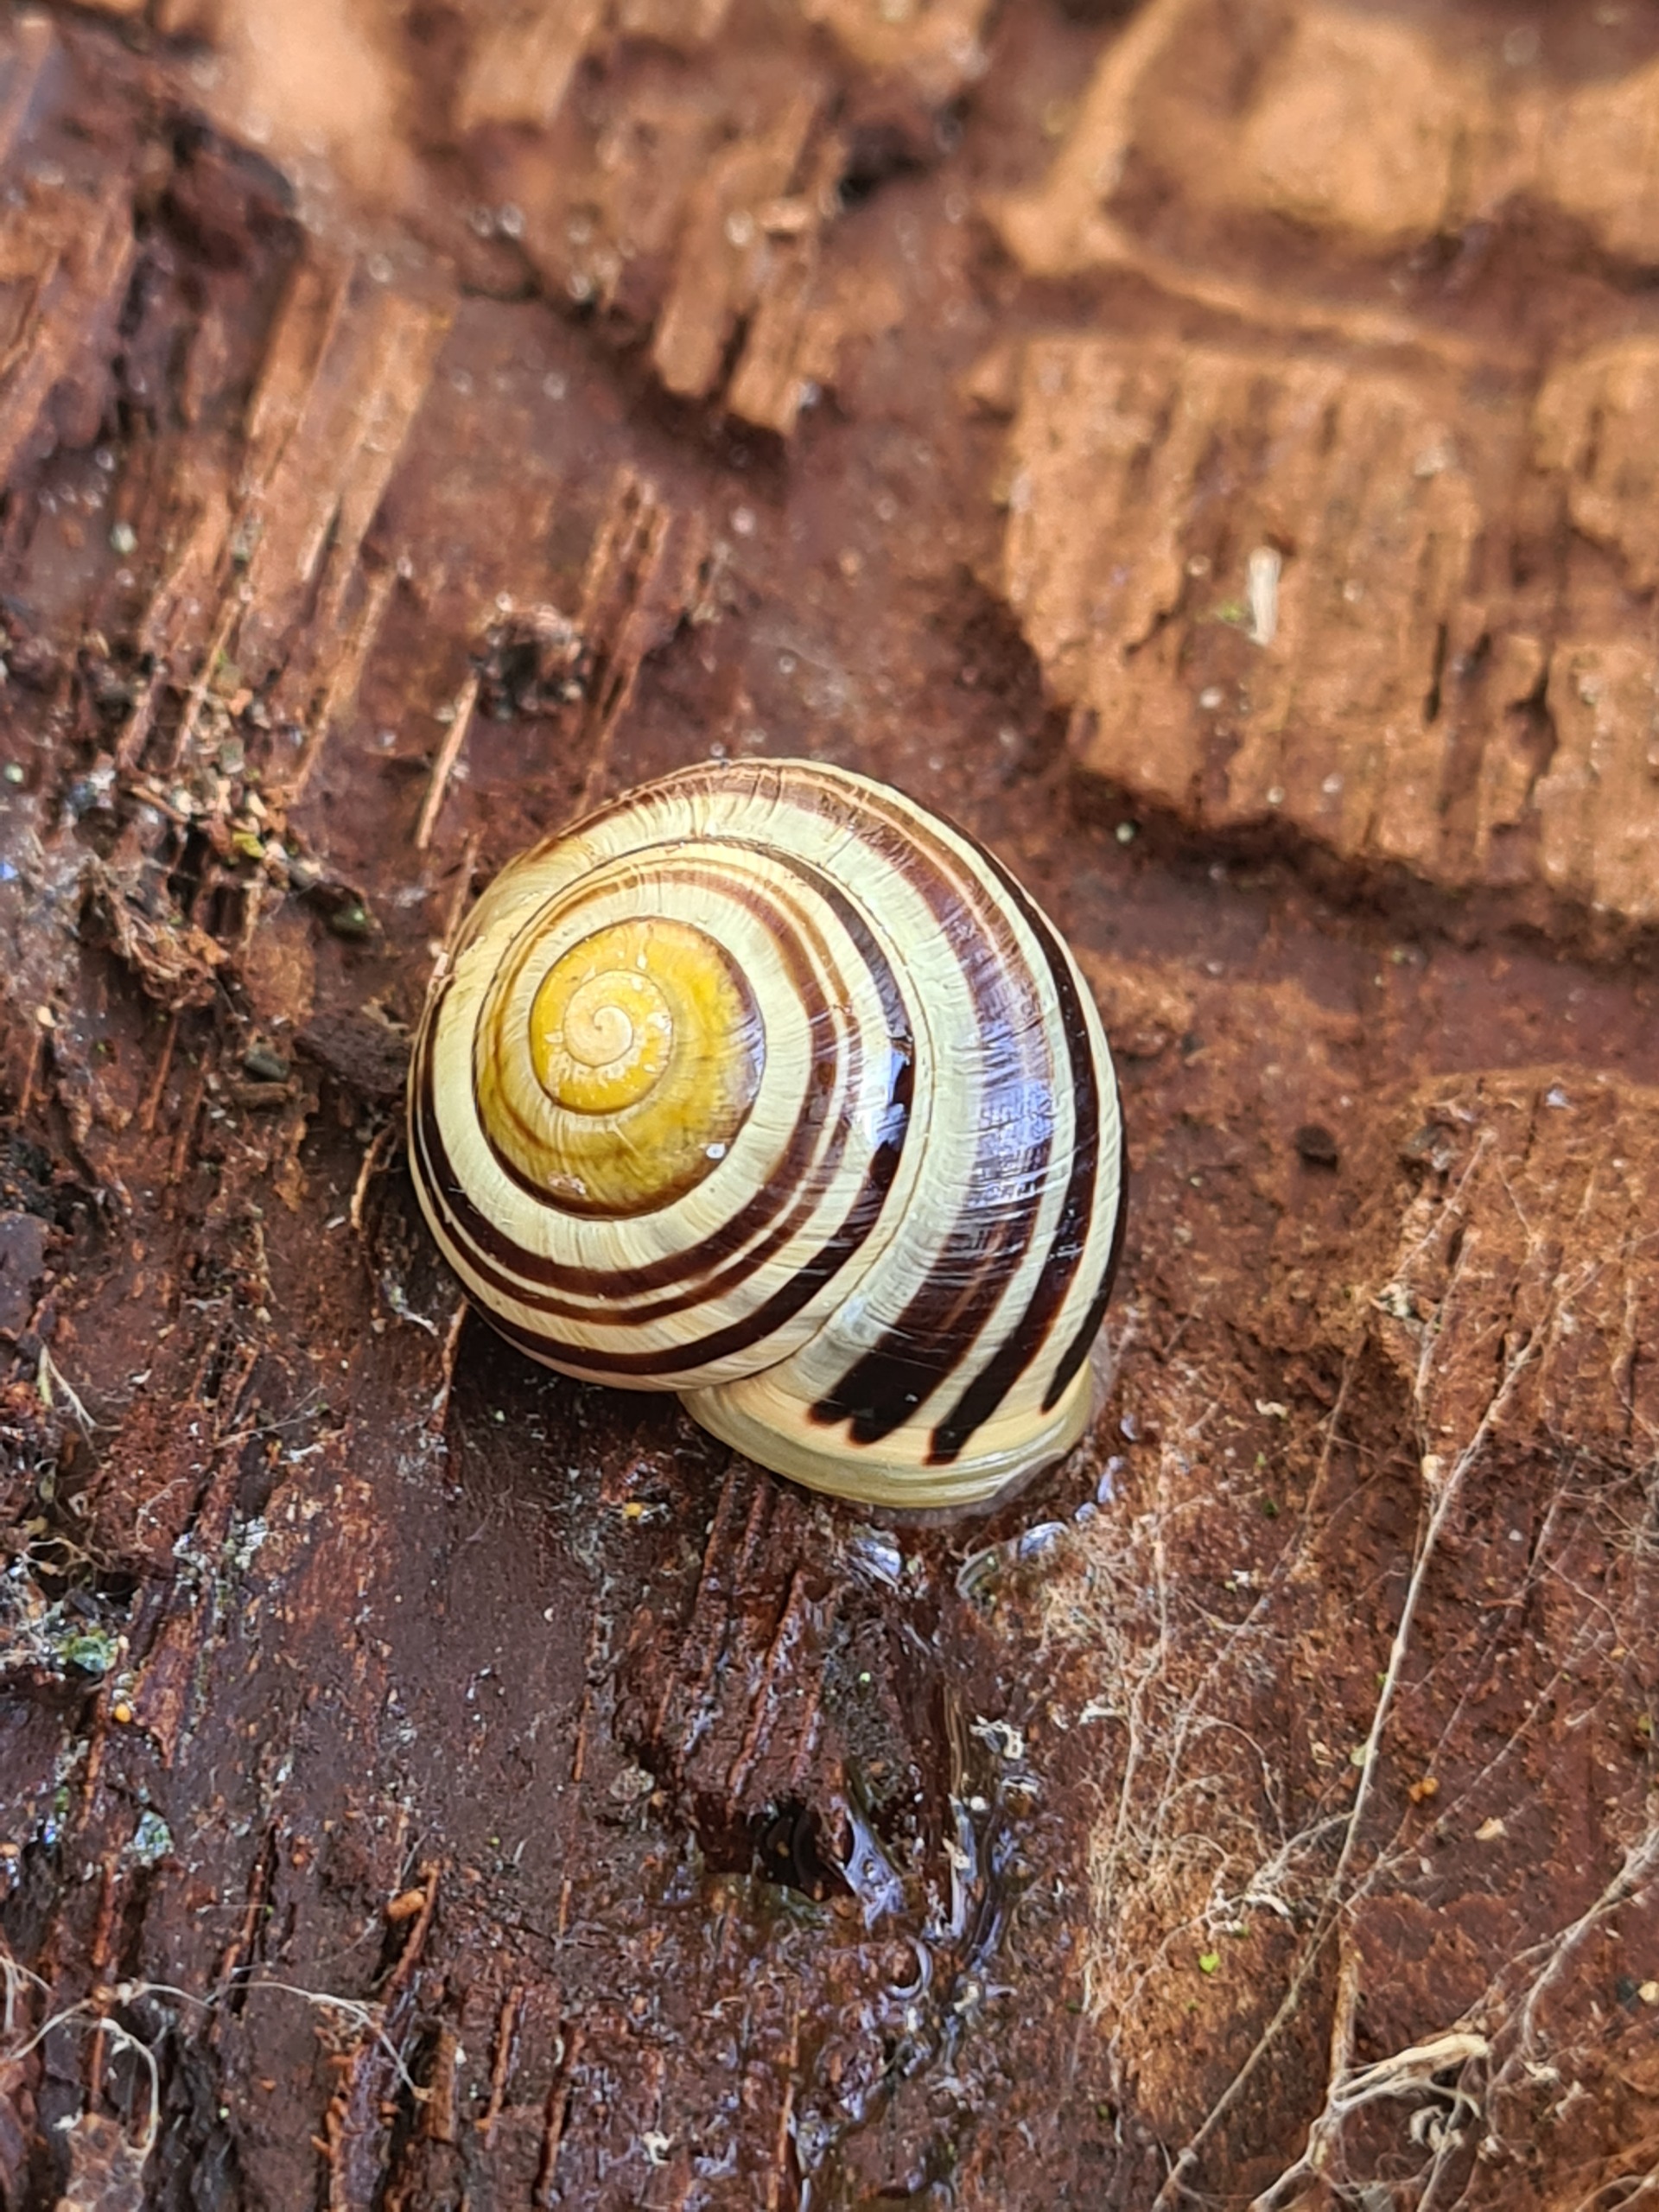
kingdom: Animalia
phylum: Mollusca
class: Gastropoda
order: Stylommatophora
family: Helicidae
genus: Cepaea
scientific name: Cepaea hortensis
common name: Havesnegl
